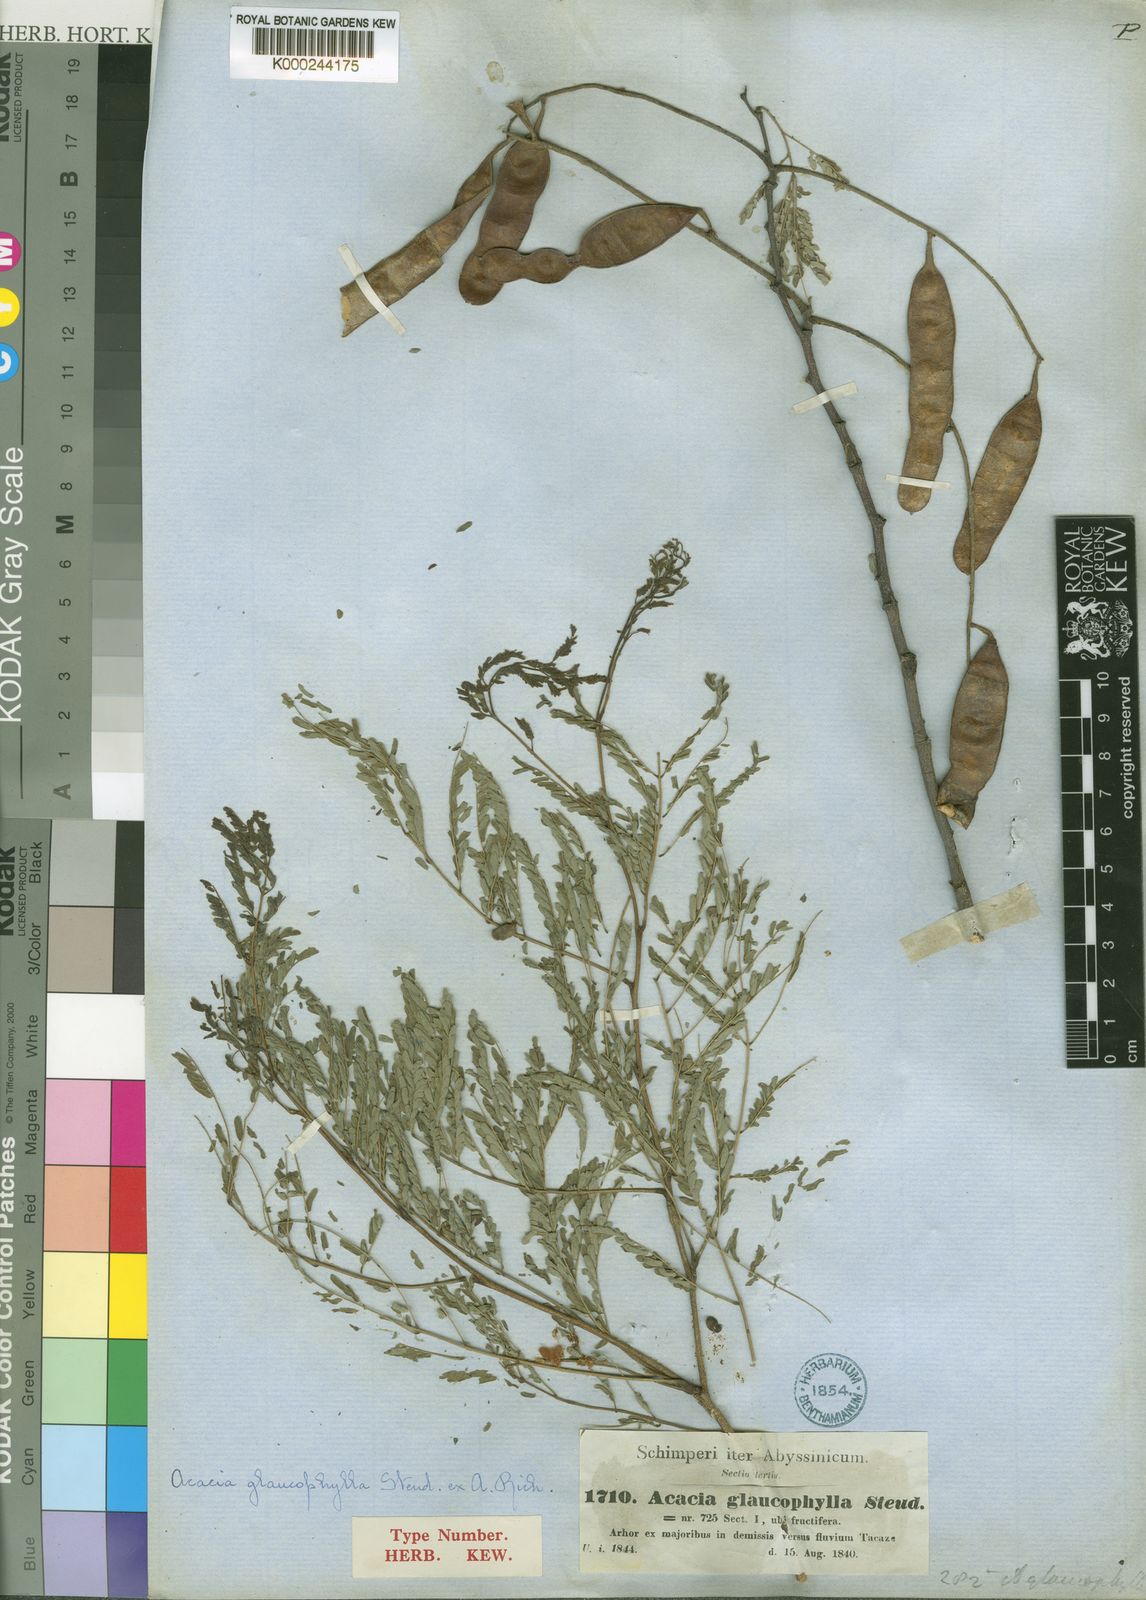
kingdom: Plantae
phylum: Tracheophyta
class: Magnoliopsida
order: Fabales
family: Fabaceae
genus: Senegalia
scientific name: Senegalia asak
